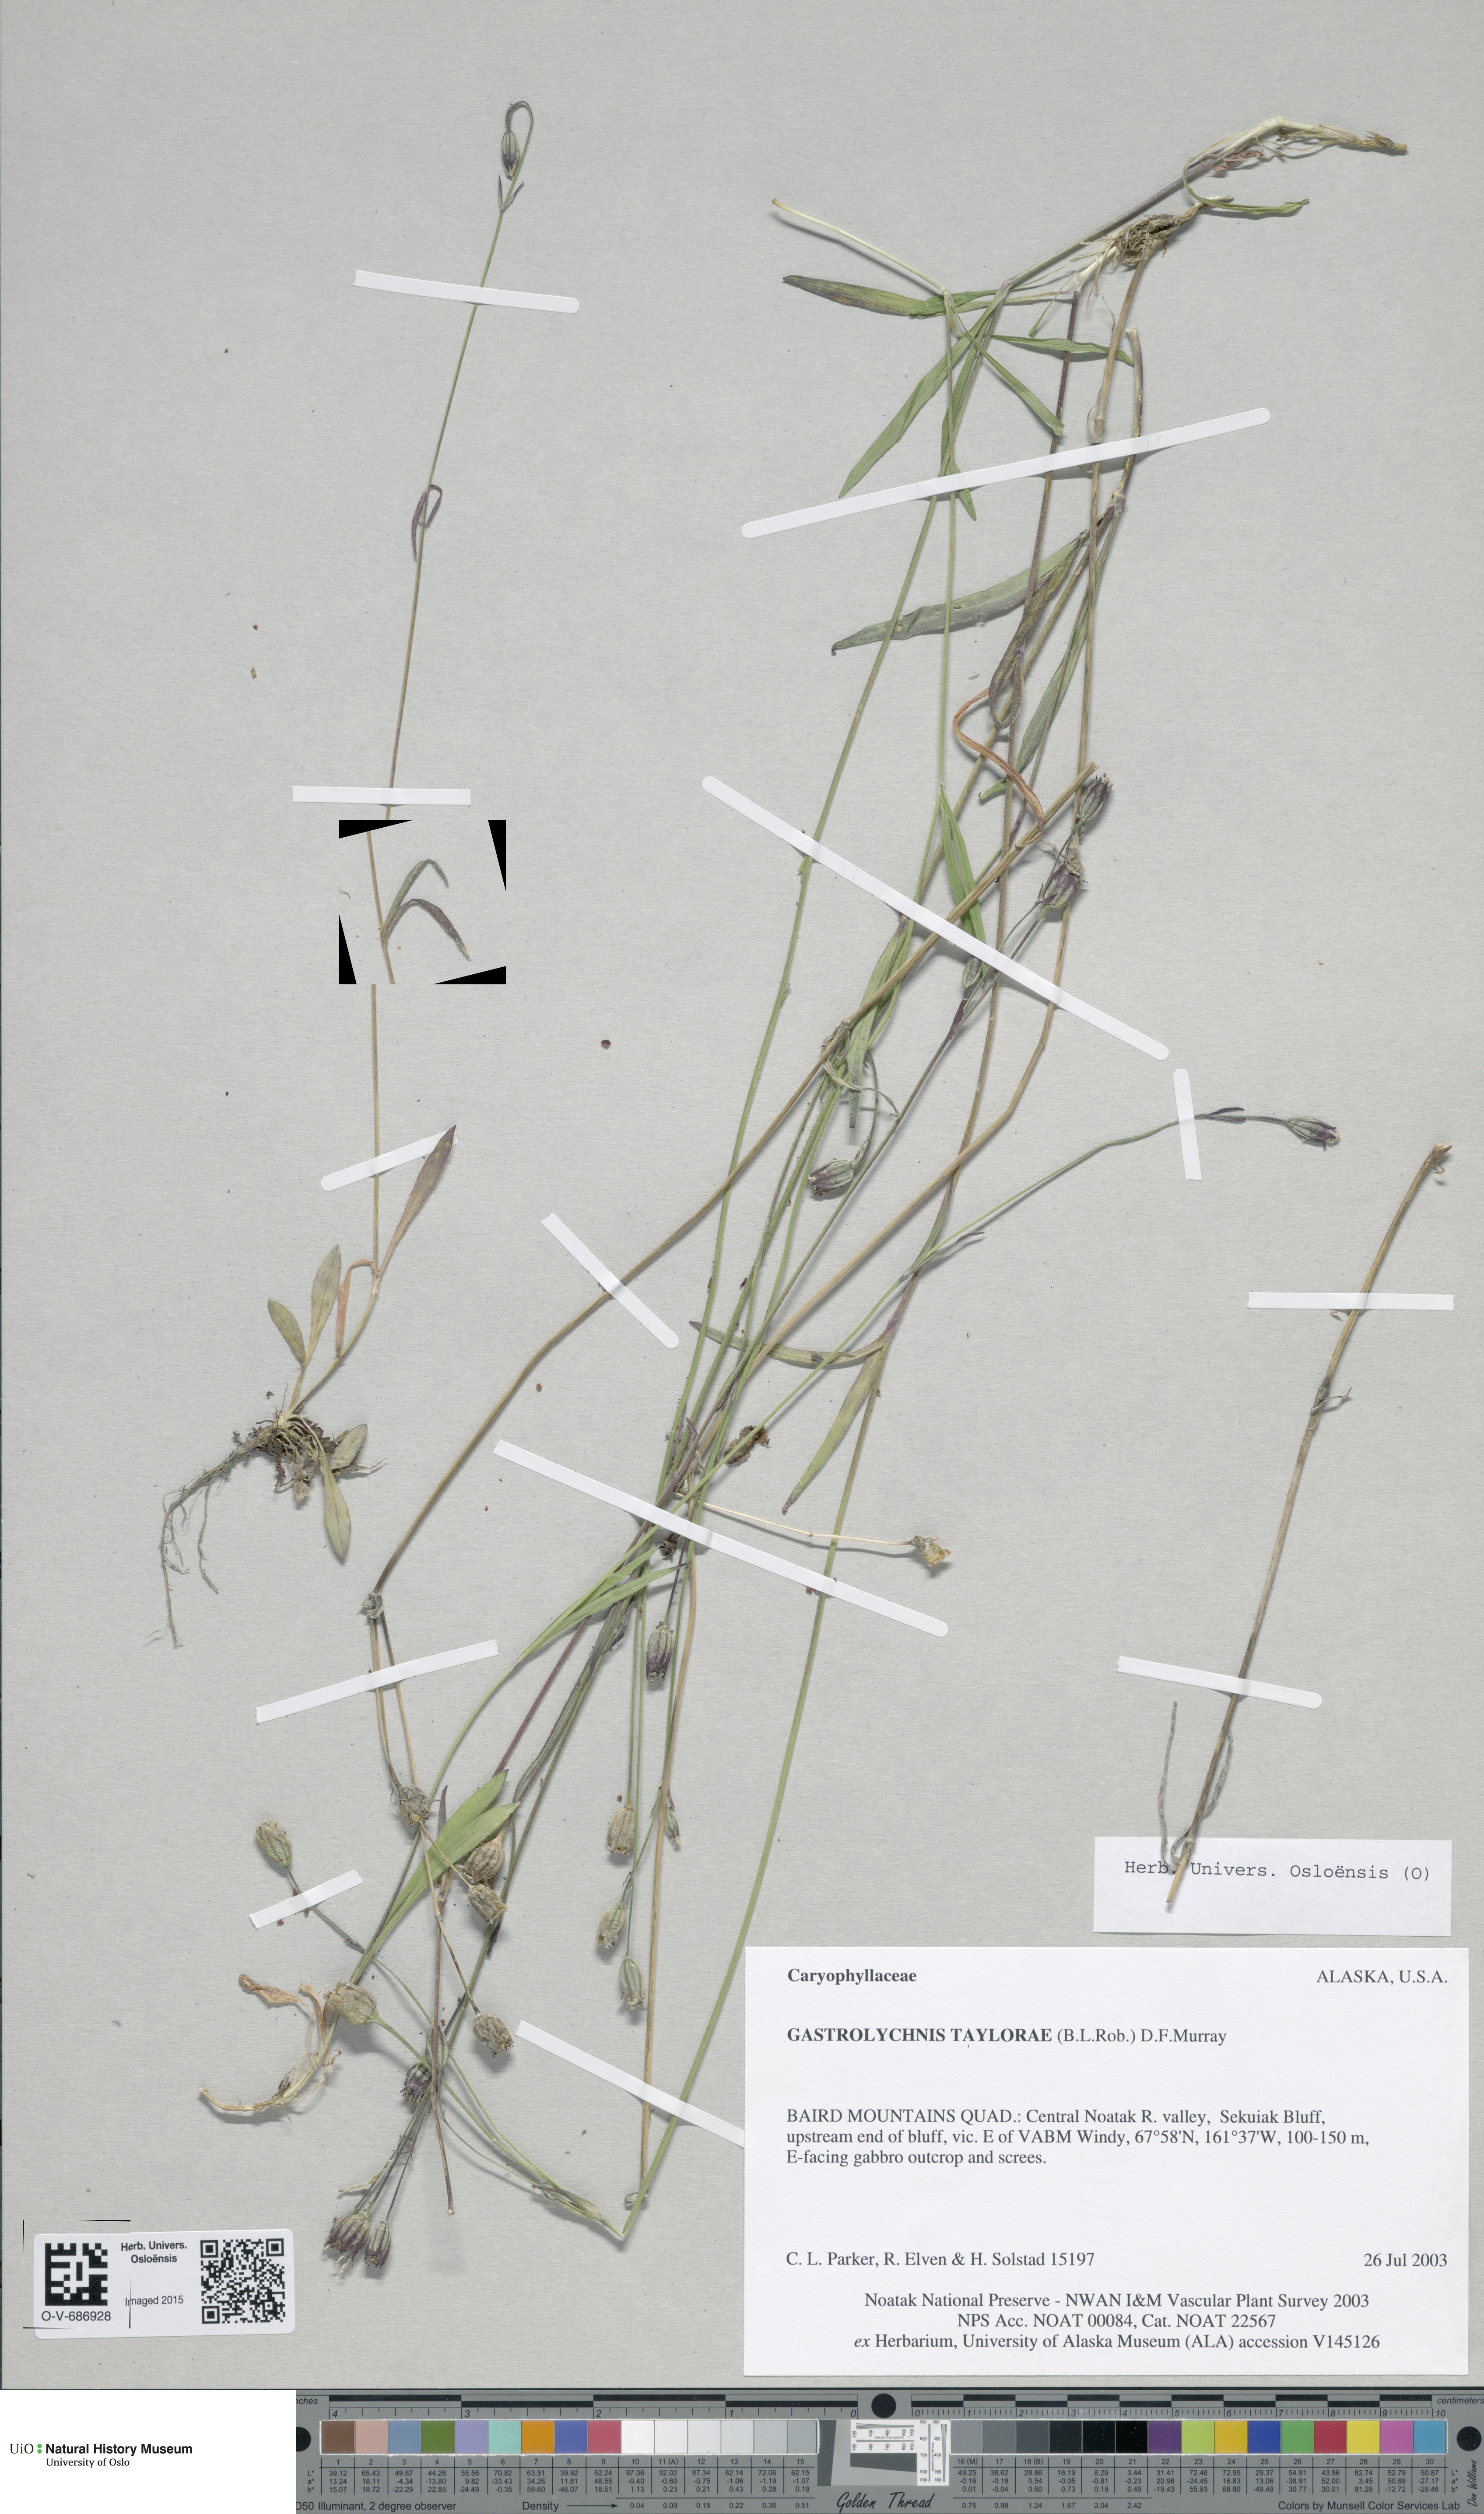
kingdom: Plantae
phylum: Tracheophyta
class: Magnoliopsida
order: Caryophyllales
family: Caryophyllaceae
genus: Silene
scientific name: Silene
